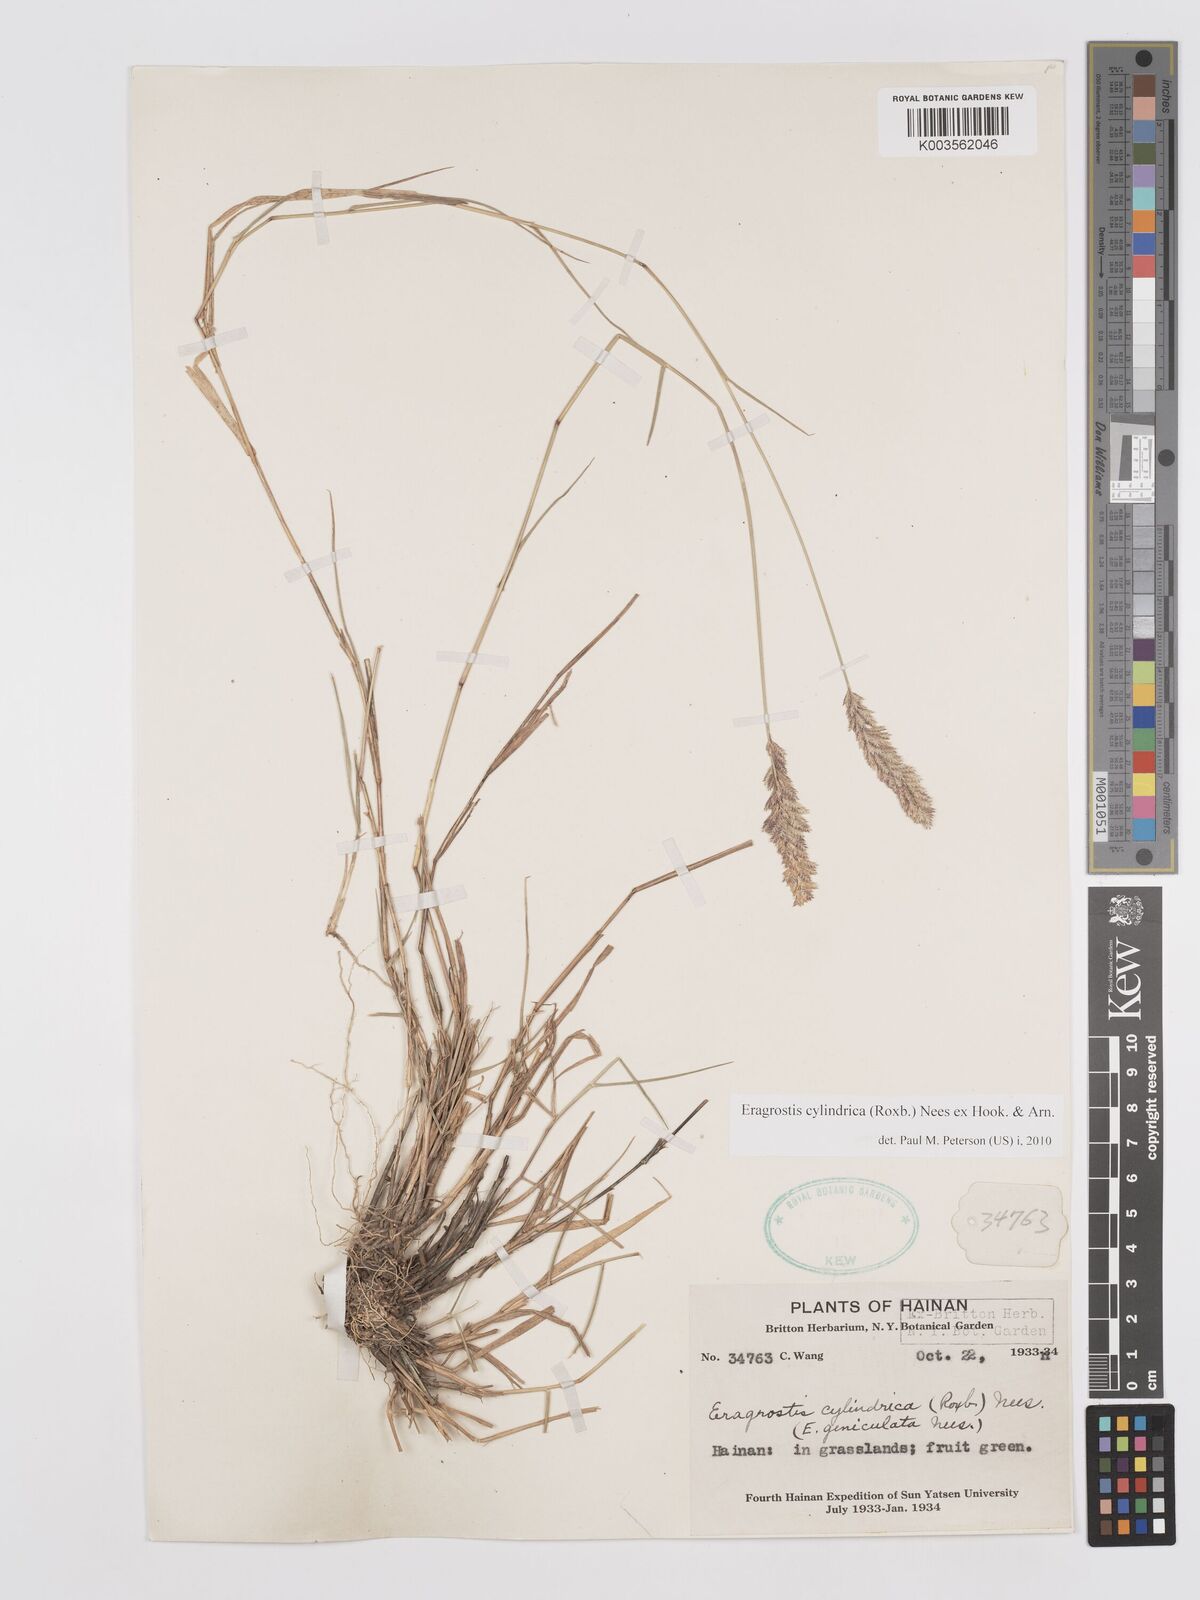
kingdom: Plantae
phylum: Tracheophyta
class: Liliopsida
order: Poales
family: Poaceae
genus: Eragrostis
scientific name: Eragrostis cylindrica
